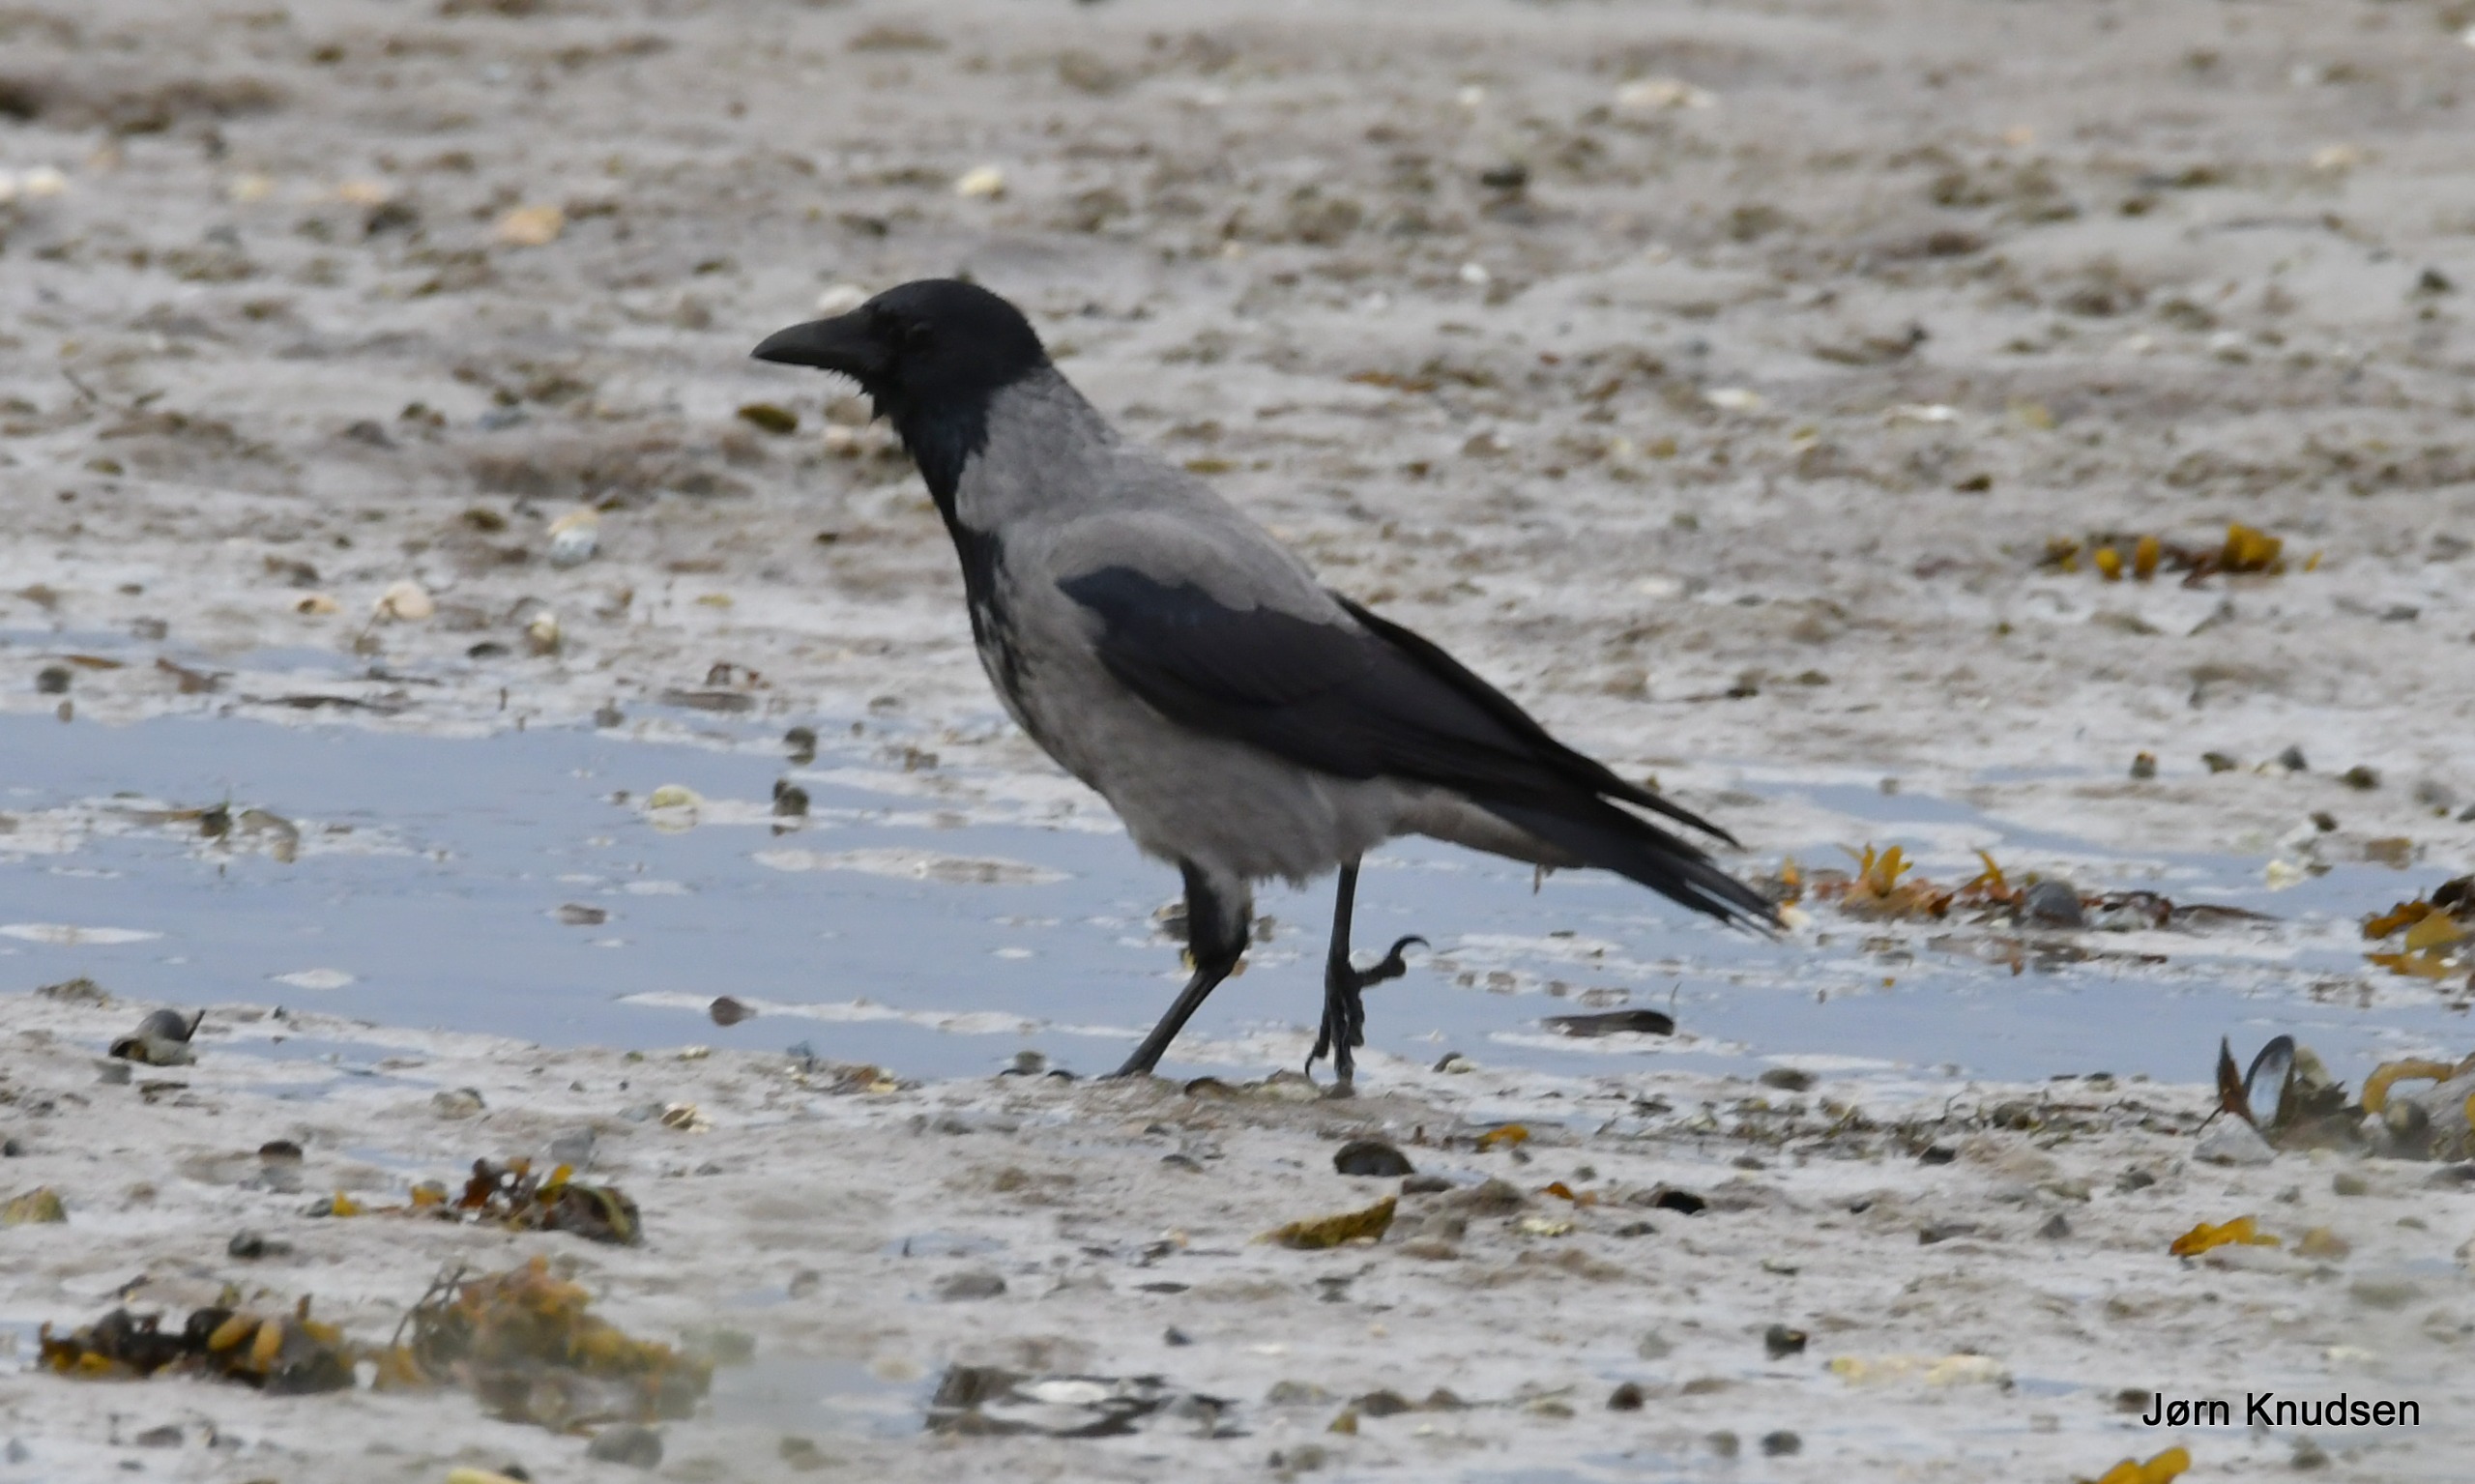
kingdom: Animalia
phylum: Chordata
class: Aves
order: Passeriformes
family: Corvidae
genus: Corvus
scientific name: Corvus cornix
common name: Gråkrage
